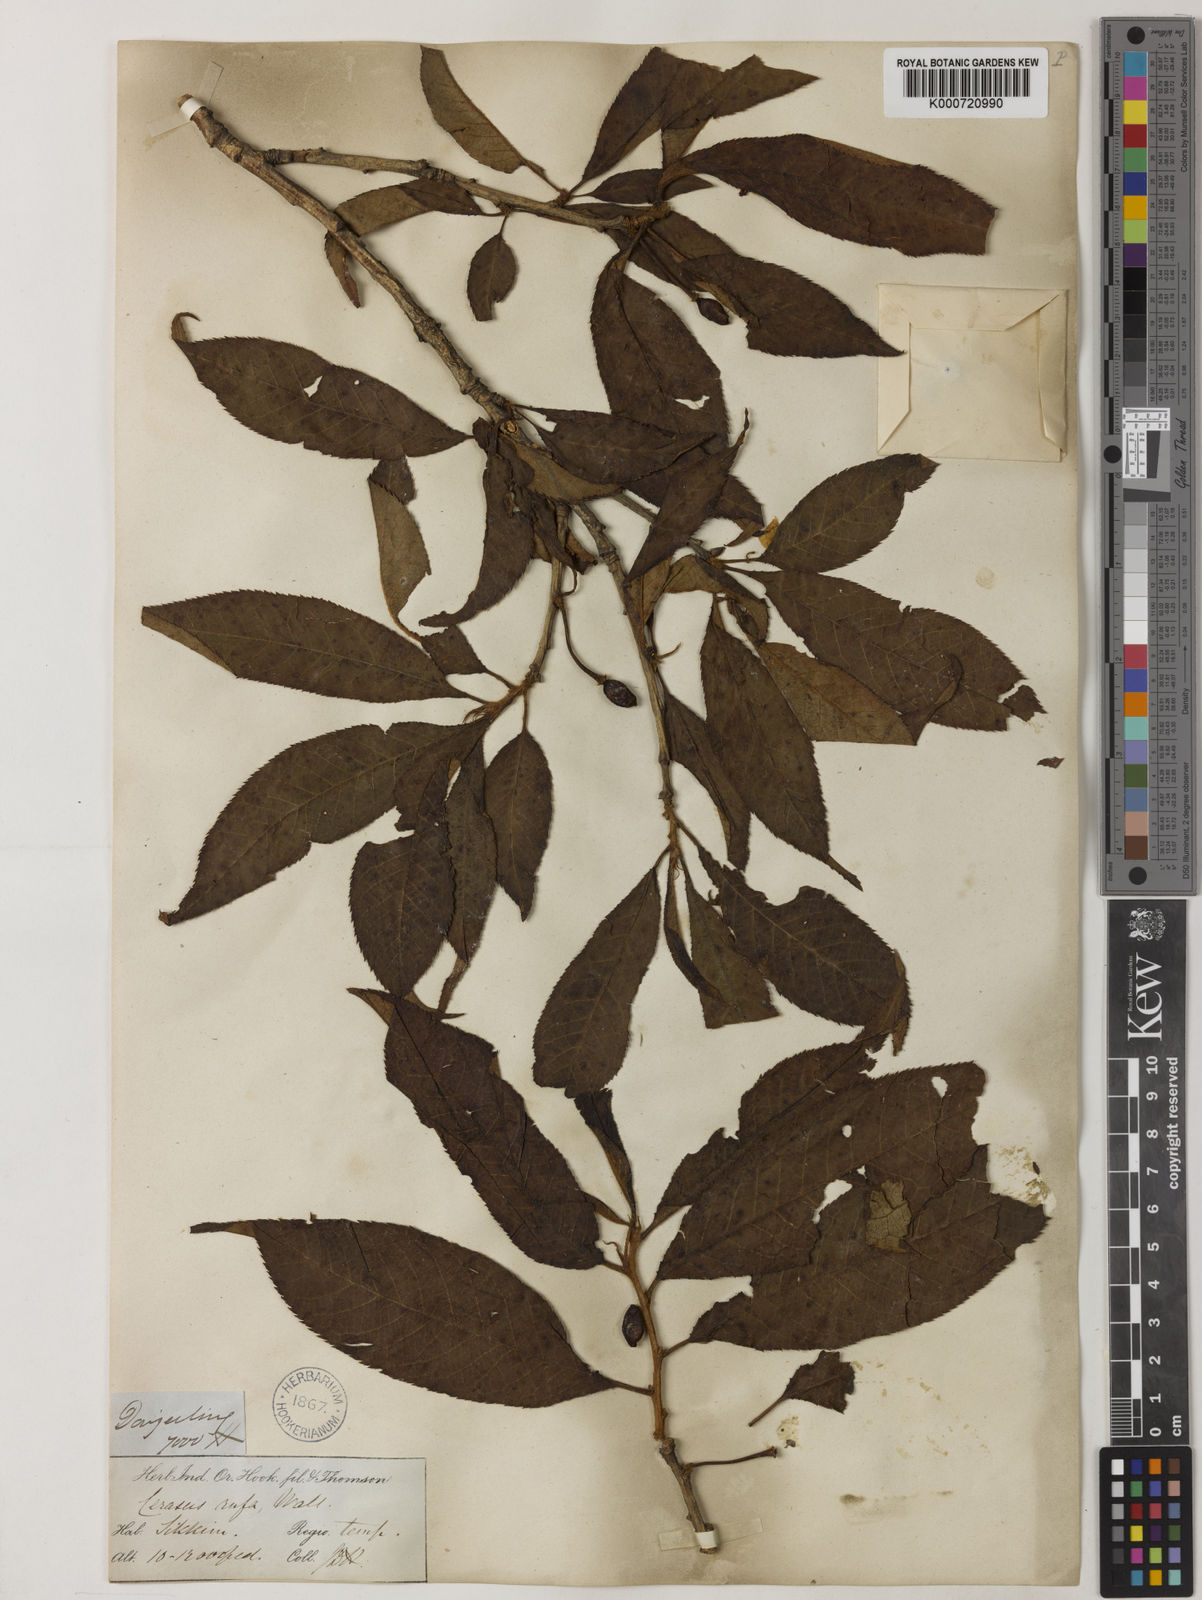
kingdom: Plantae
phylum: Tracheophyta
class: Magnoliopsida
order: Rosales
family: Rosaceae
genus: Prunus
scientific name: Prunus trichantha
